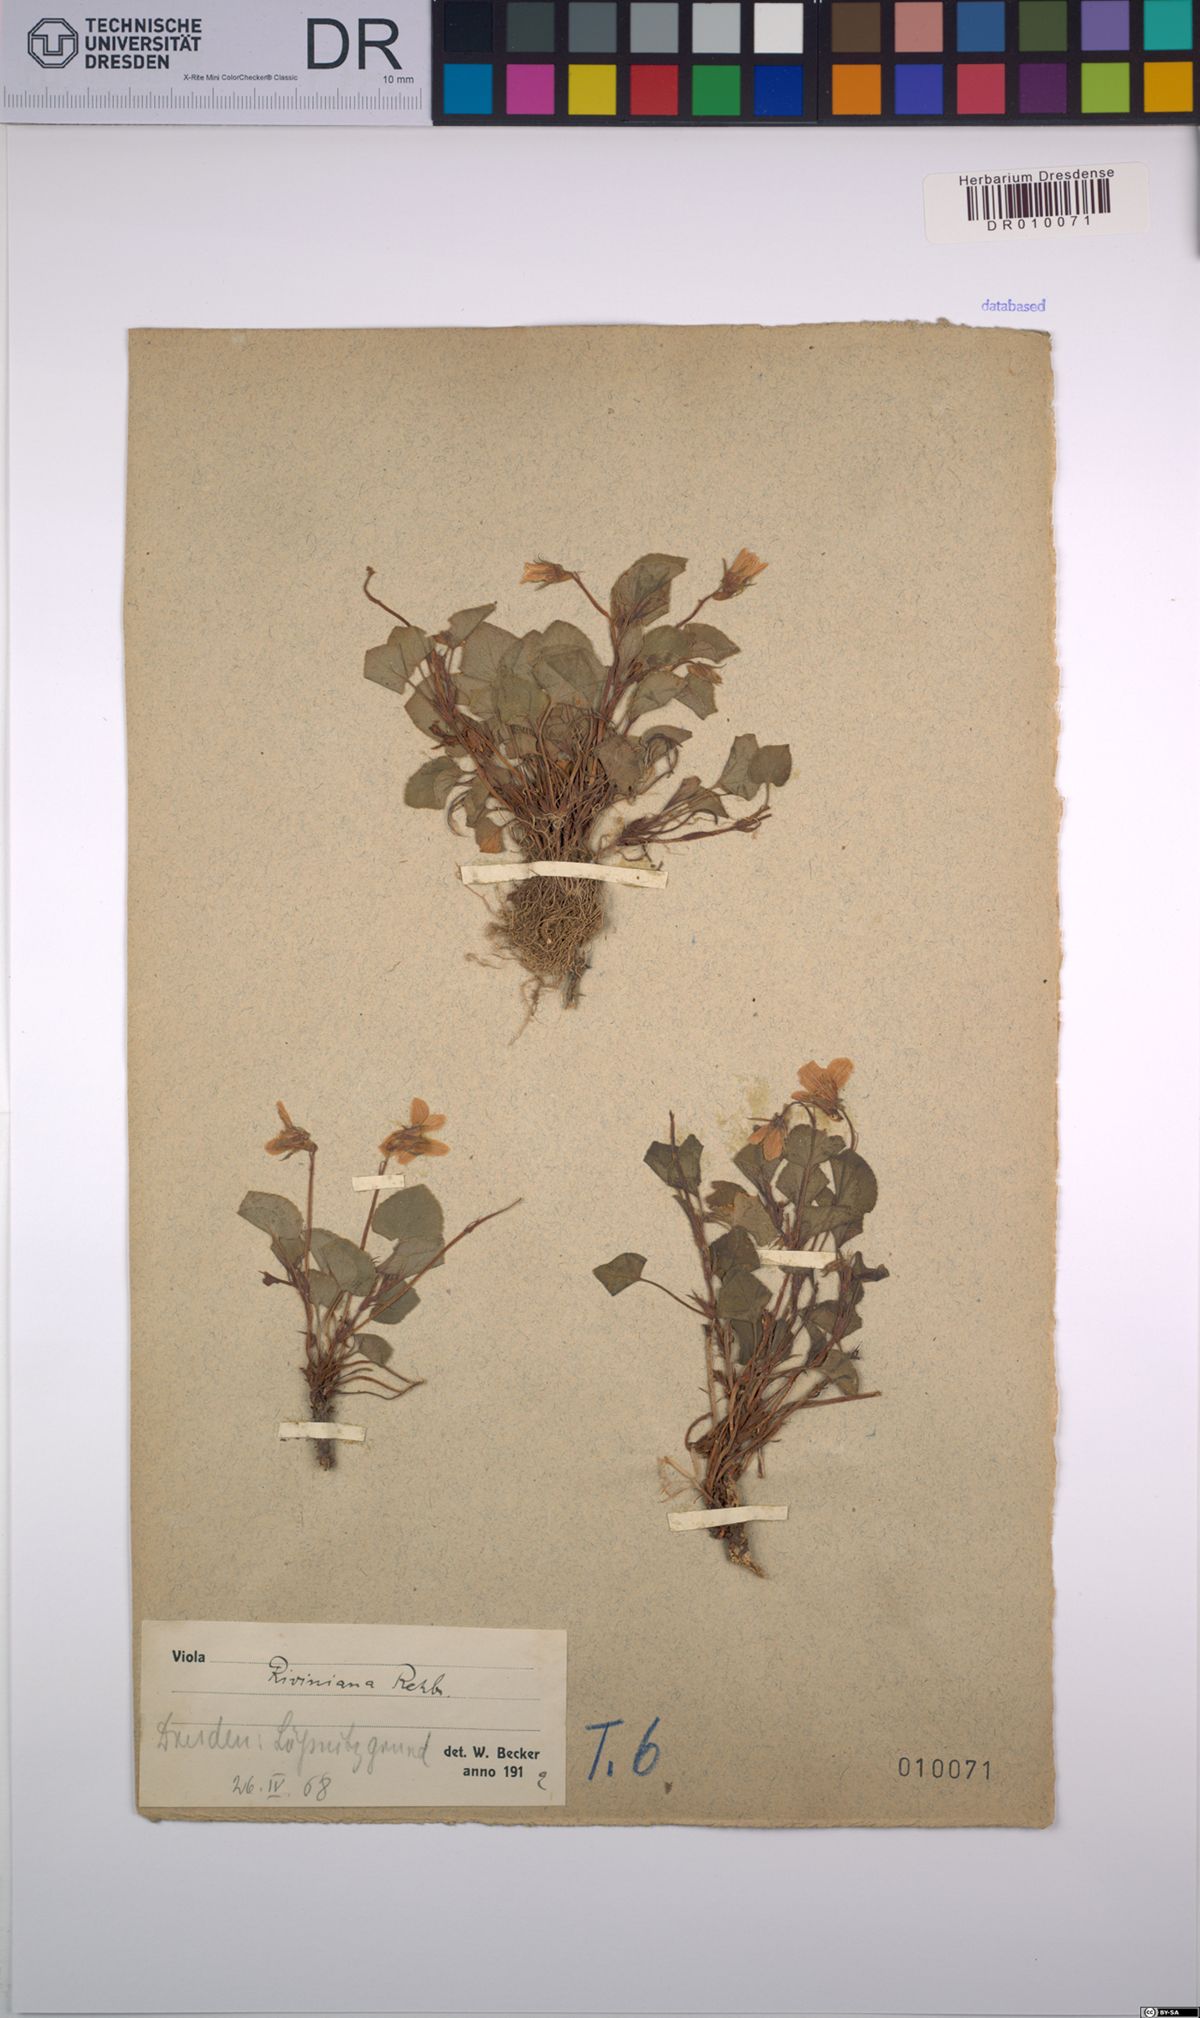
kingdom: Plantae
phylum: Tracheophyta
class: Magnoliopsida
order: Malpighiales
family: Violaceae
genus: Viola
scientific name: Viola riviniana
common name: Common dog-violet
